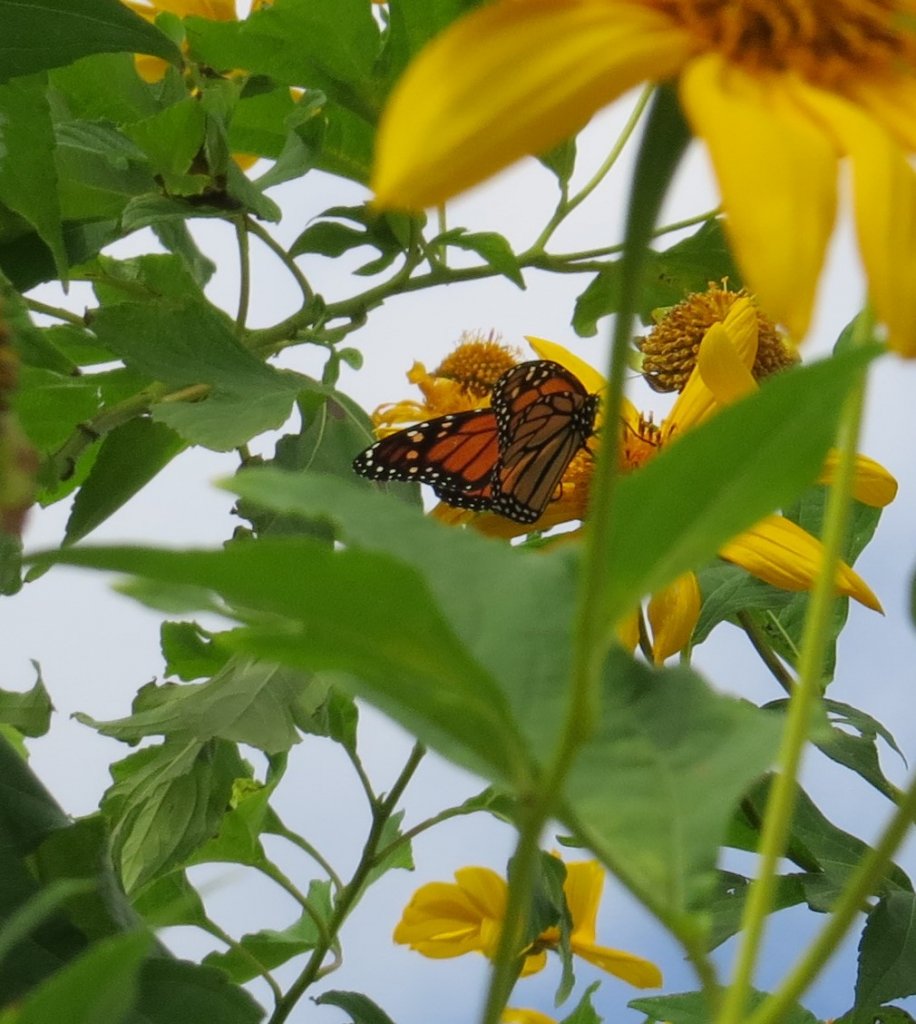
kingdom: Animalia
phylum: Arthropoda
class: Insecta
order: Lepidoptera
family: Nymphalidae
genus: Danaus
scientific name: Danaus plexippus
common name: Monarch
